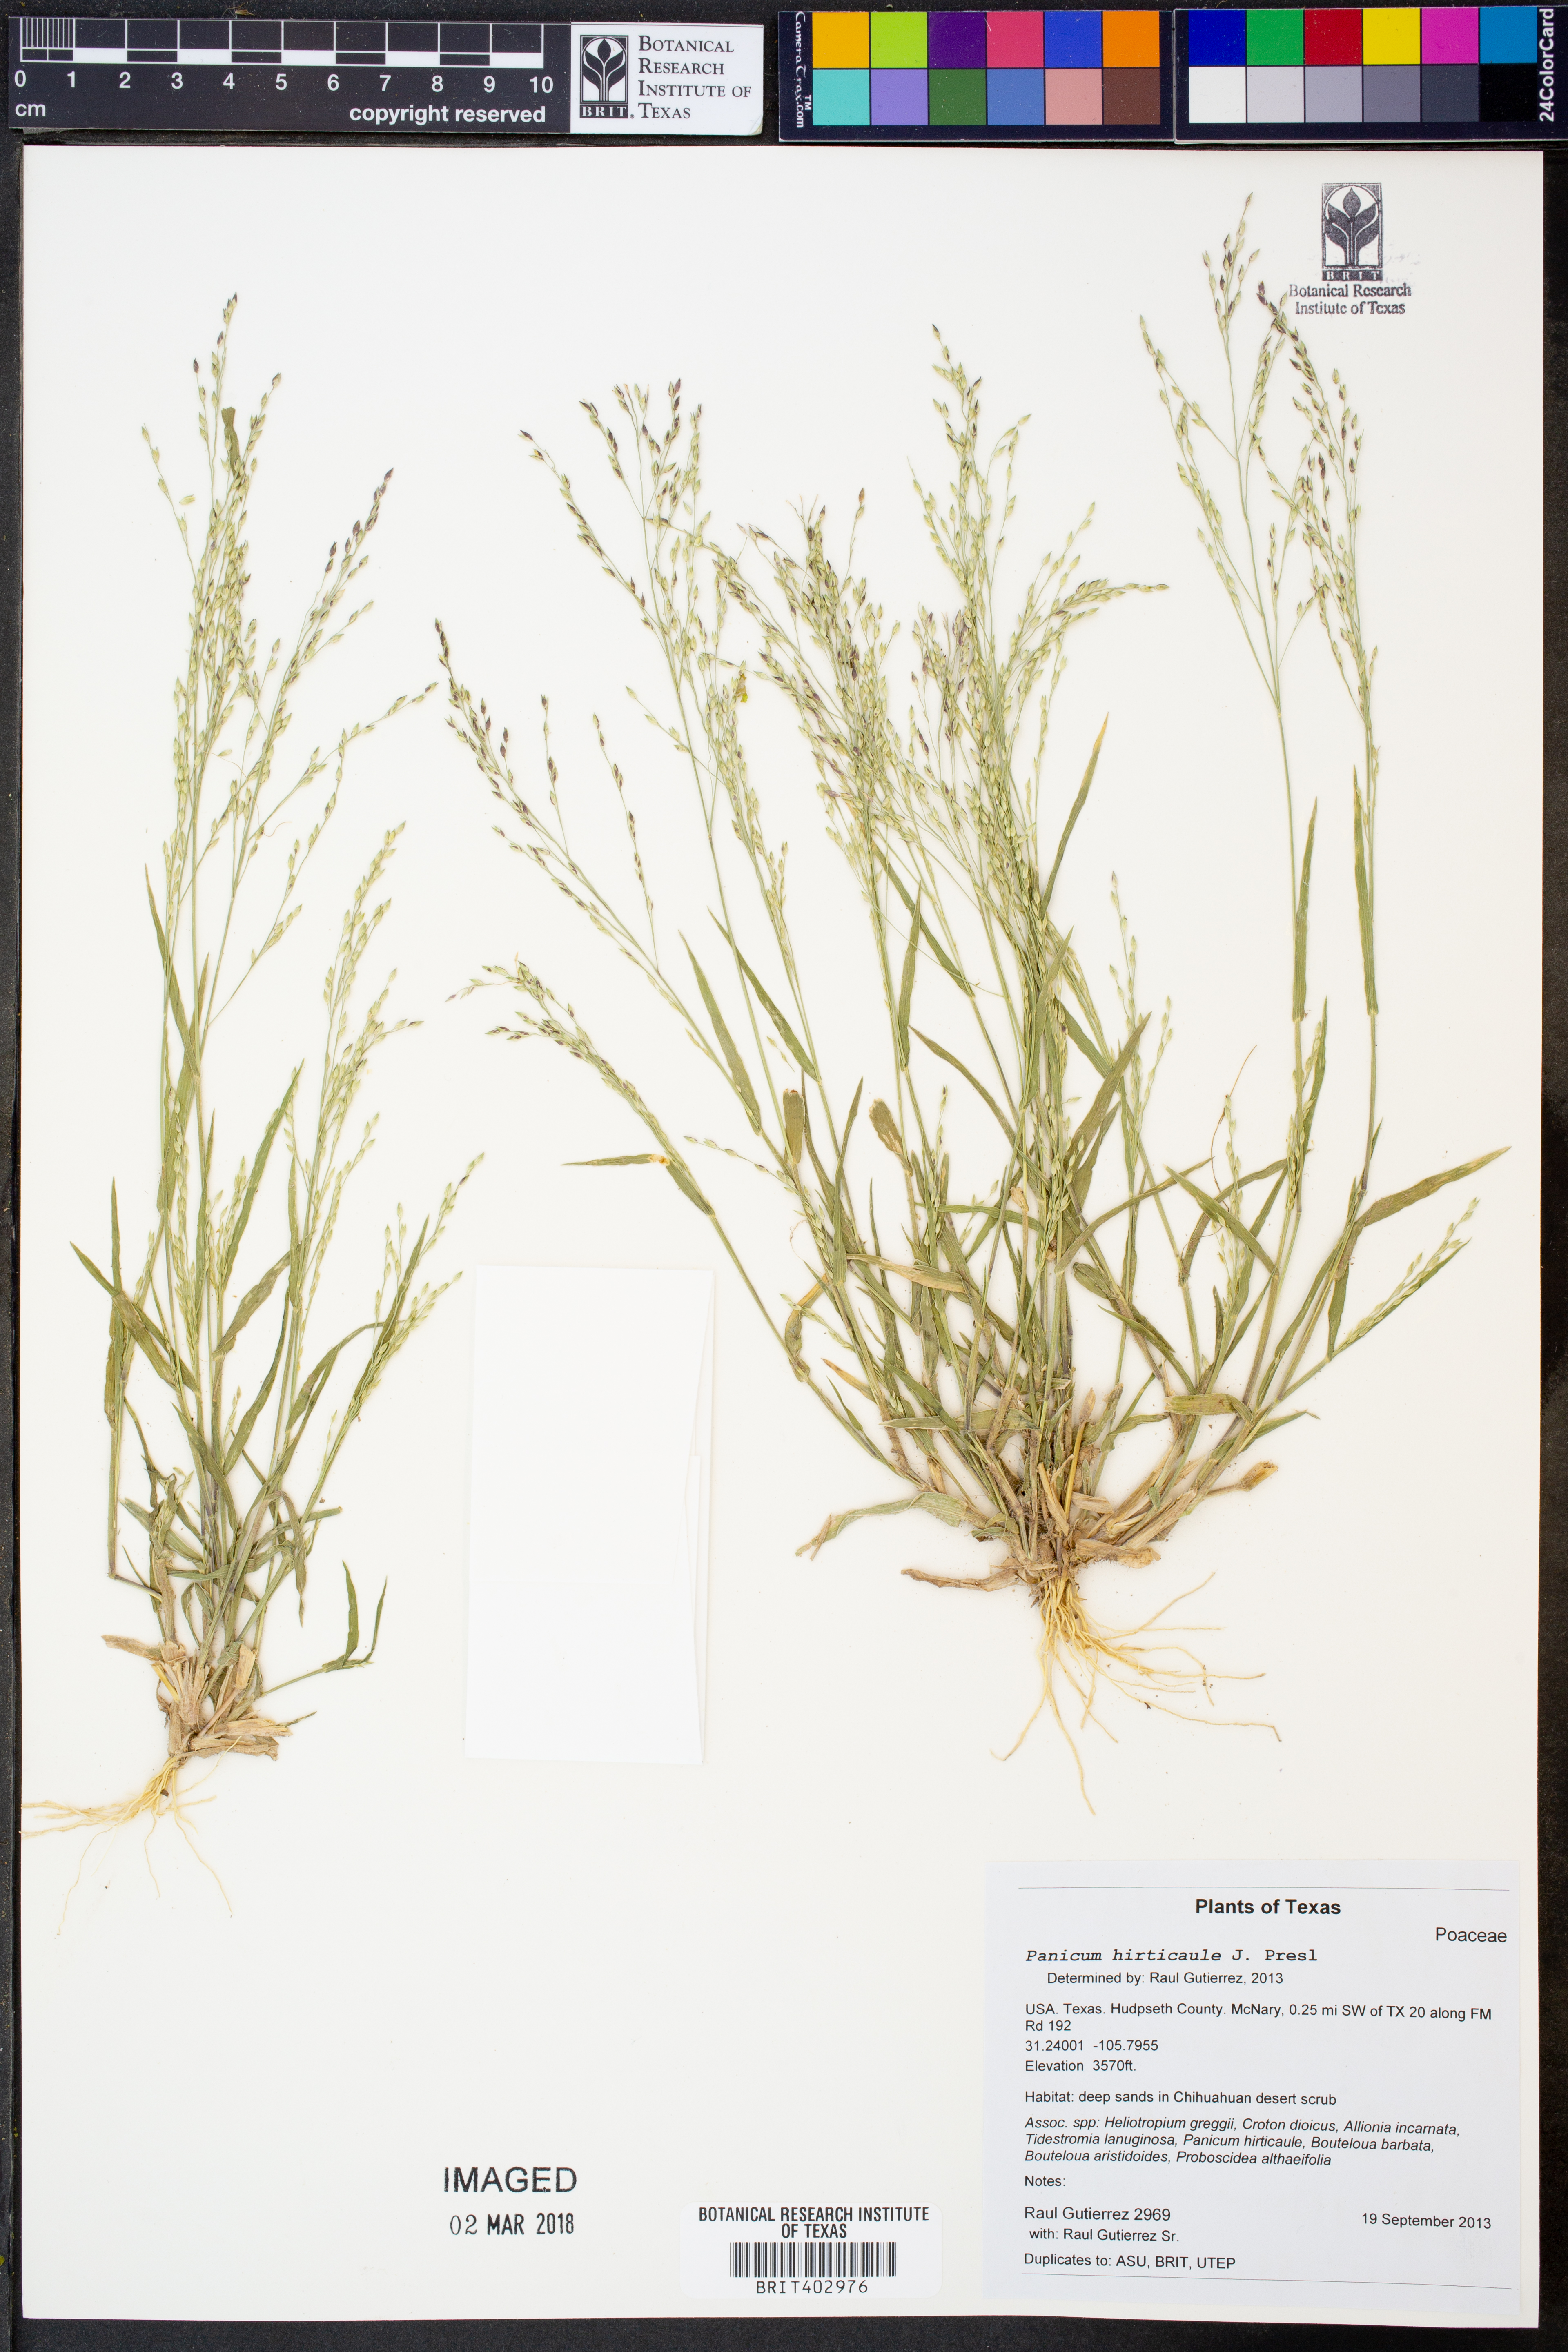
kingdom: Plantae
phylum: Tracheophyta
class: Liliopsida
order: Poales
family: Poaceae
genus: Panicum
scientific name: Panicum hirticaule
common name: Rough-stalk witchgrass
